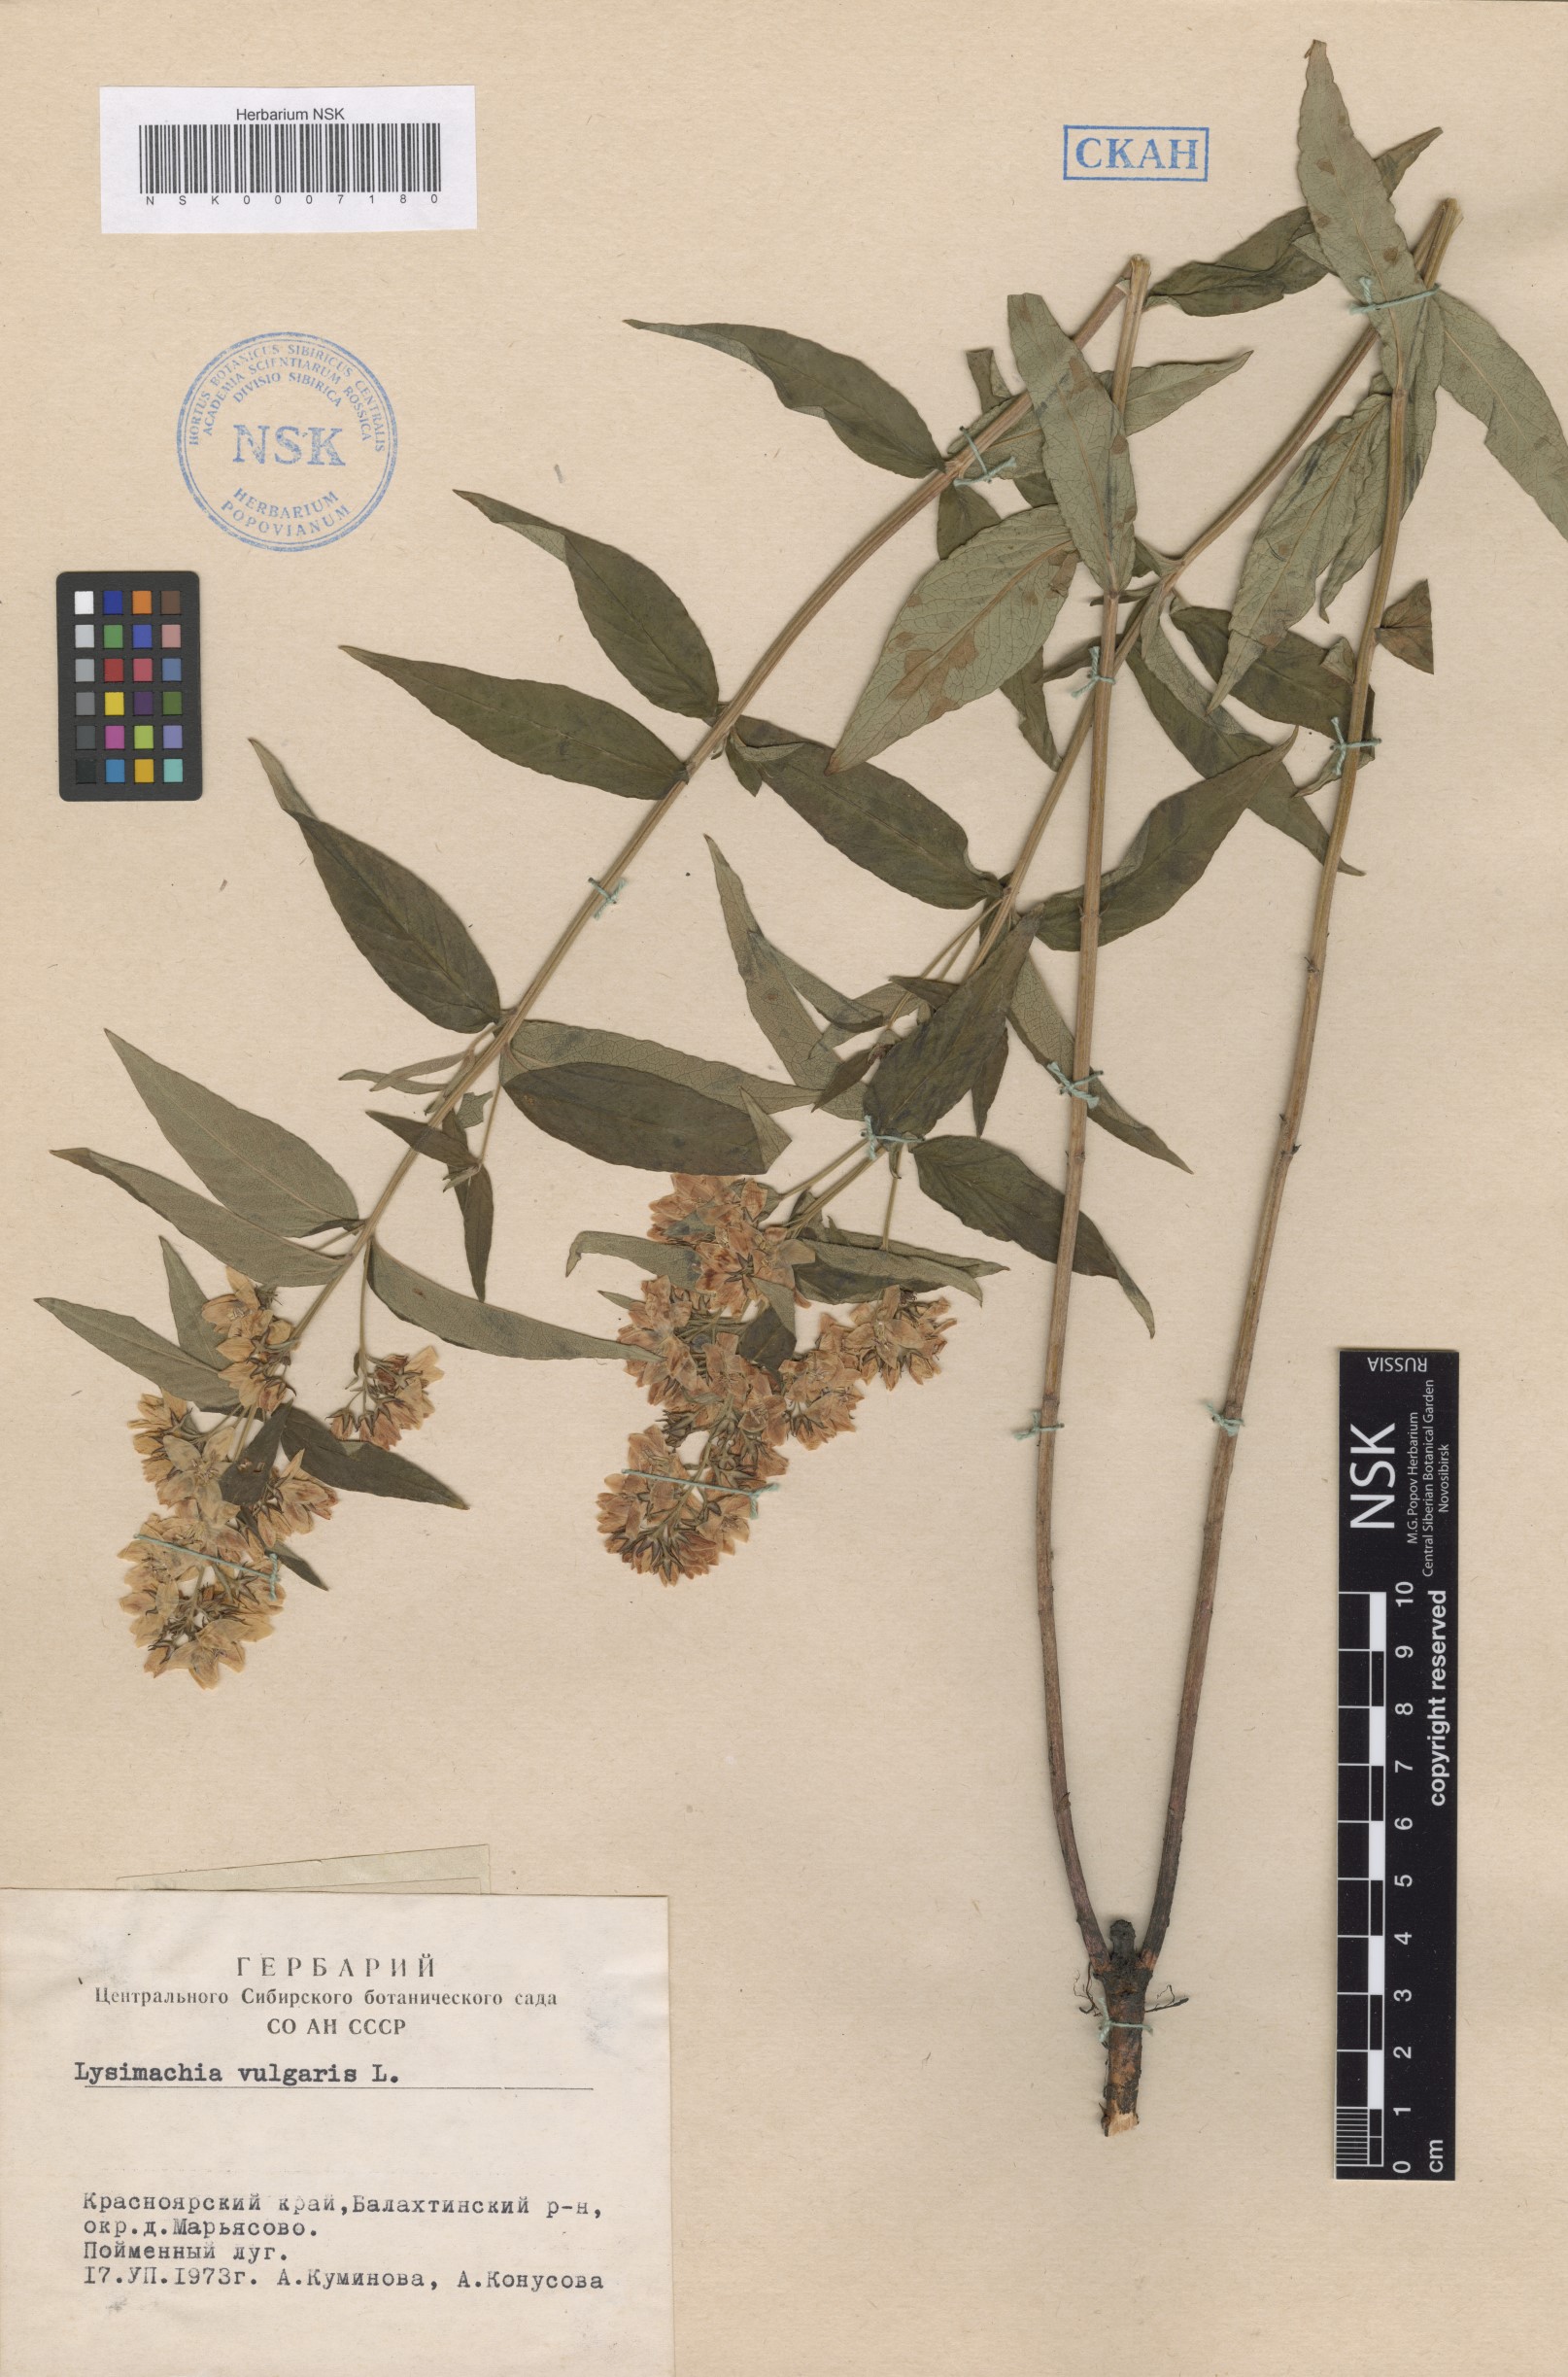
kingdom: Plantae
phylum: Tracheophyta
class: Magnoliopsida
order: Ericales
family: Primulaceae
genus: Lysimachia
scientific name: Lysimachia vulgaris
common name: Yellow loosestrife
